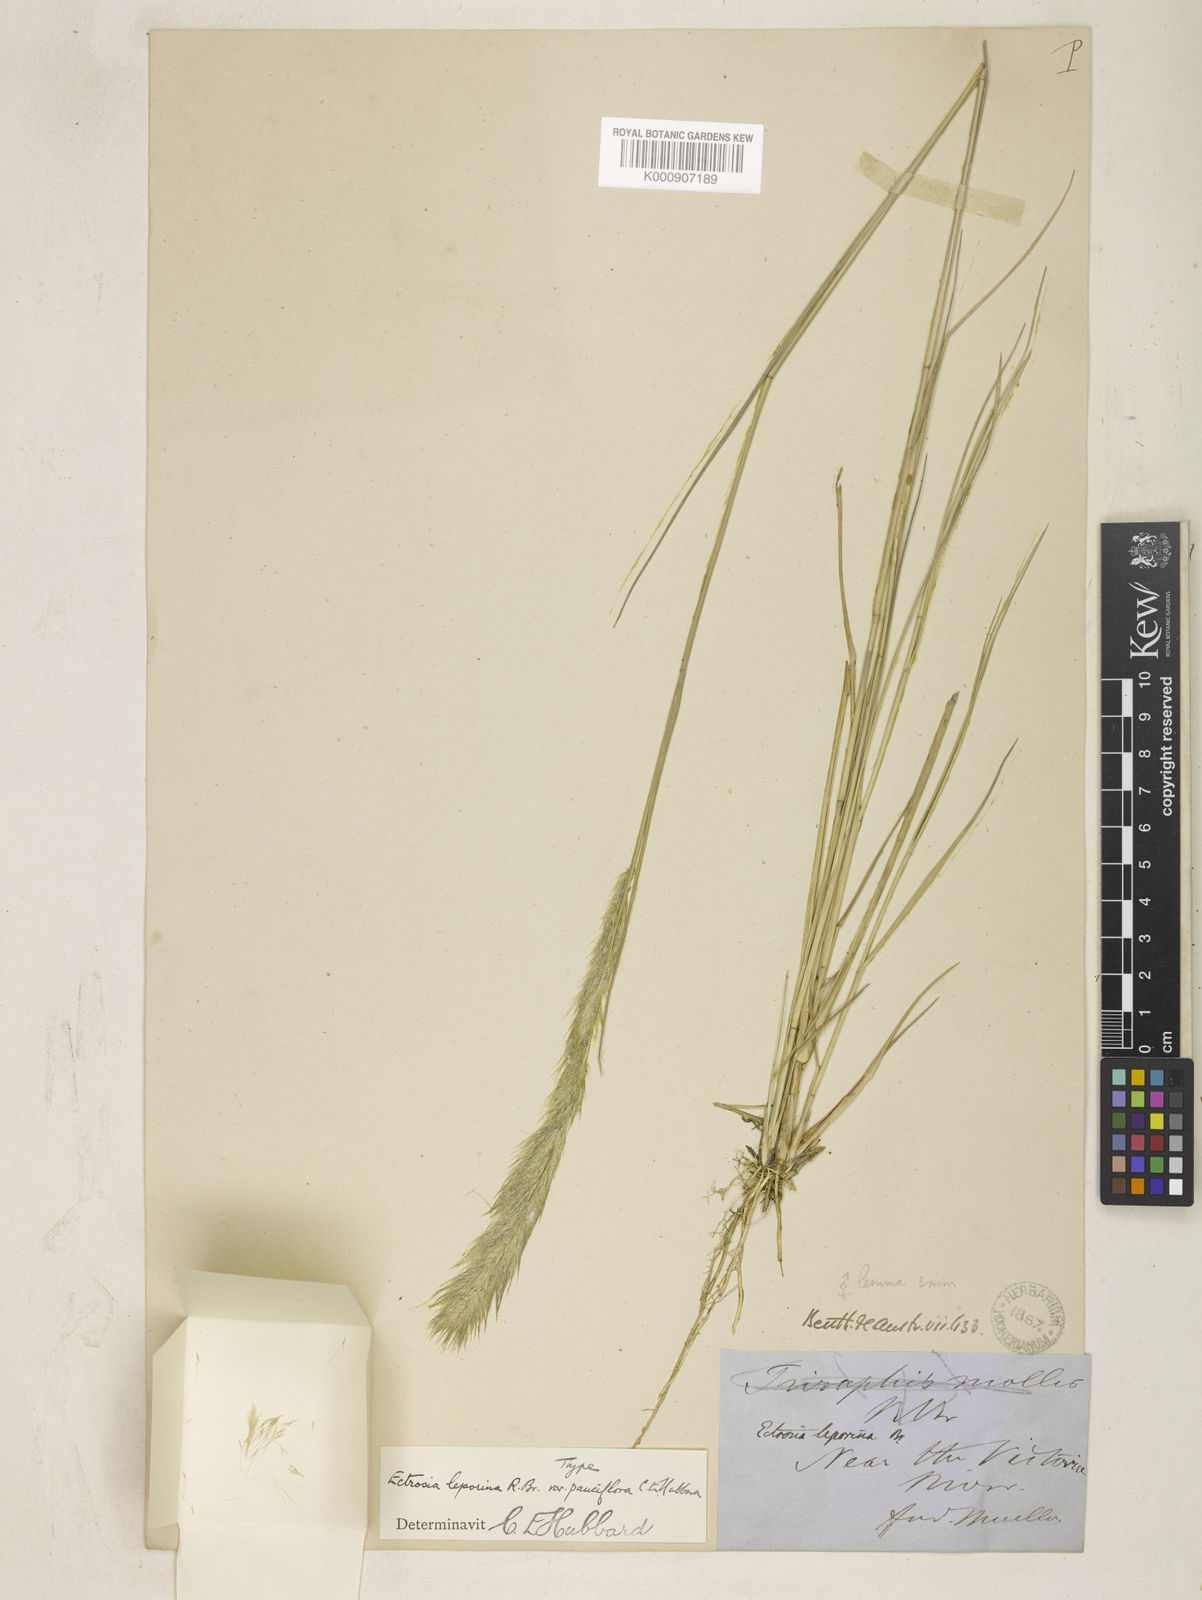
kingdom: Plantae
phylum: Tracheophyta
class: Liliopsida
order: Poales
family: Poaceae
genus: Eragrostis
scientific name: Eragrostis leporina
